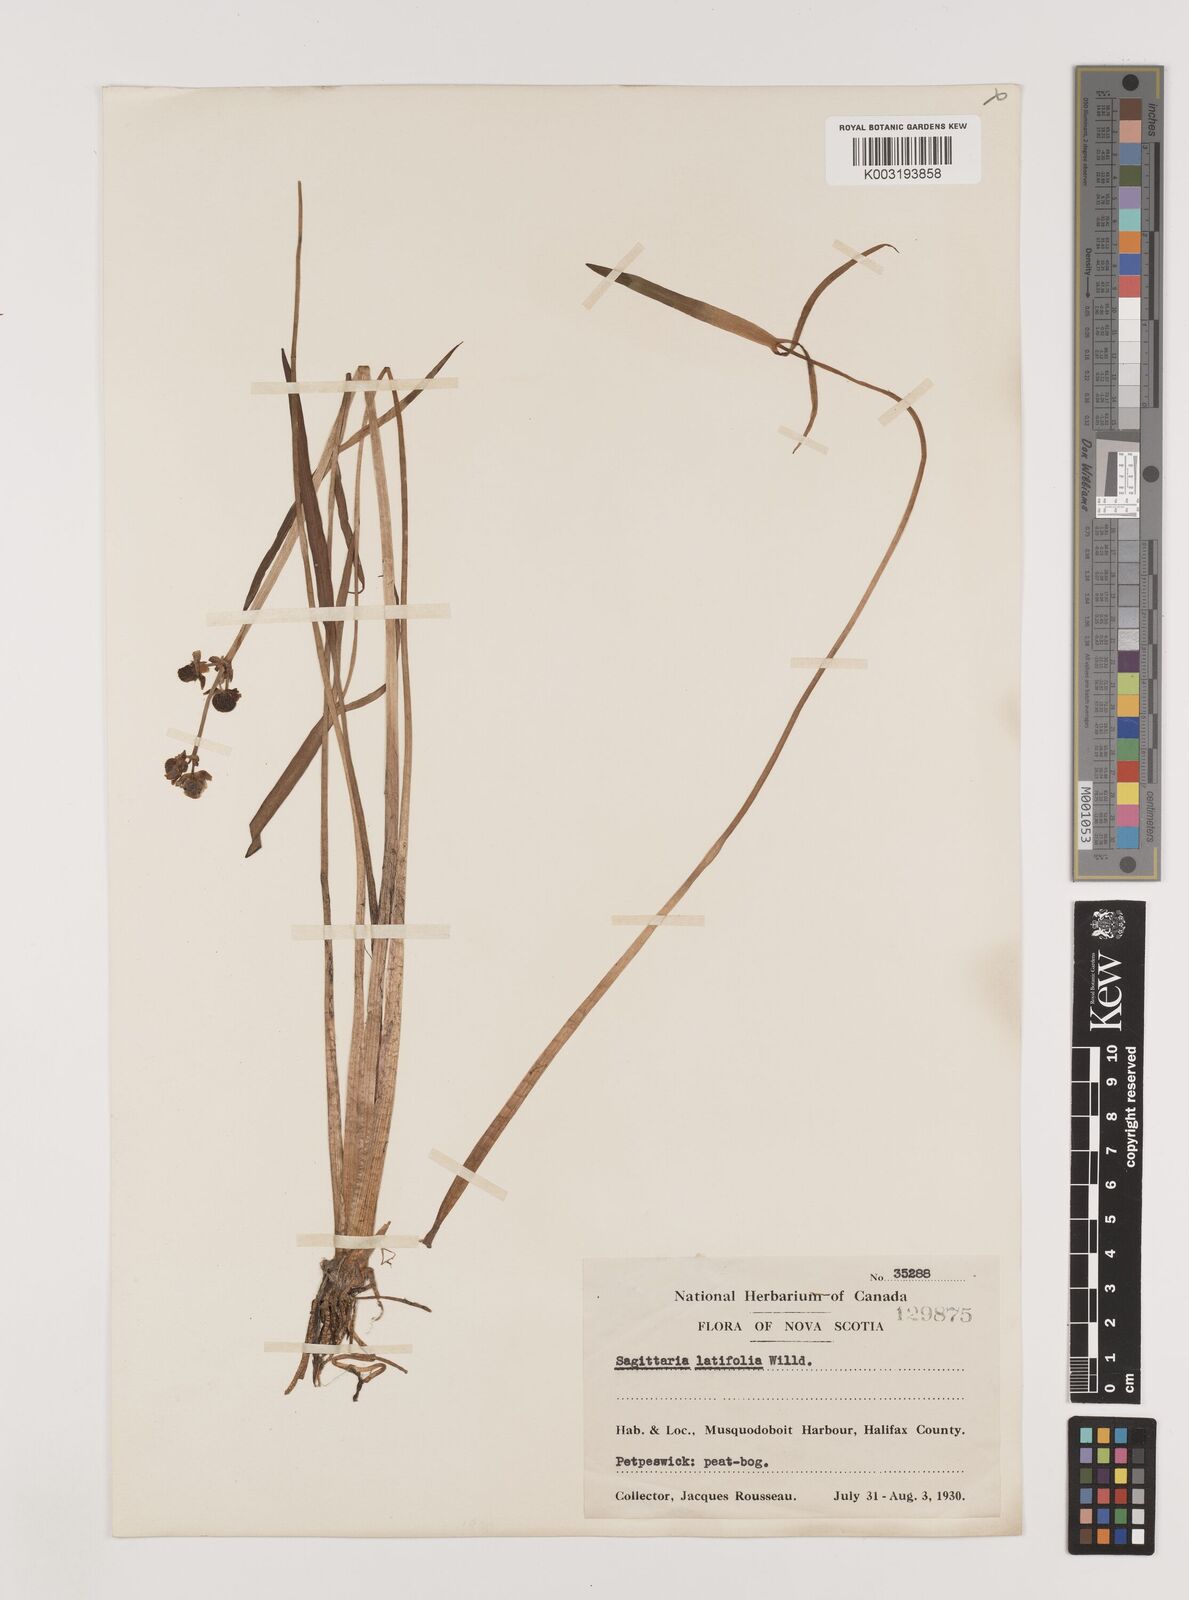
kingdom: Plantae
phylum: Tracheophyta
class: Liliopsida
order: Alismatales
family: Alismataceae
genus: Sagittaria
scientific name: Sagittaria latifolia
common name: Duck-potato
